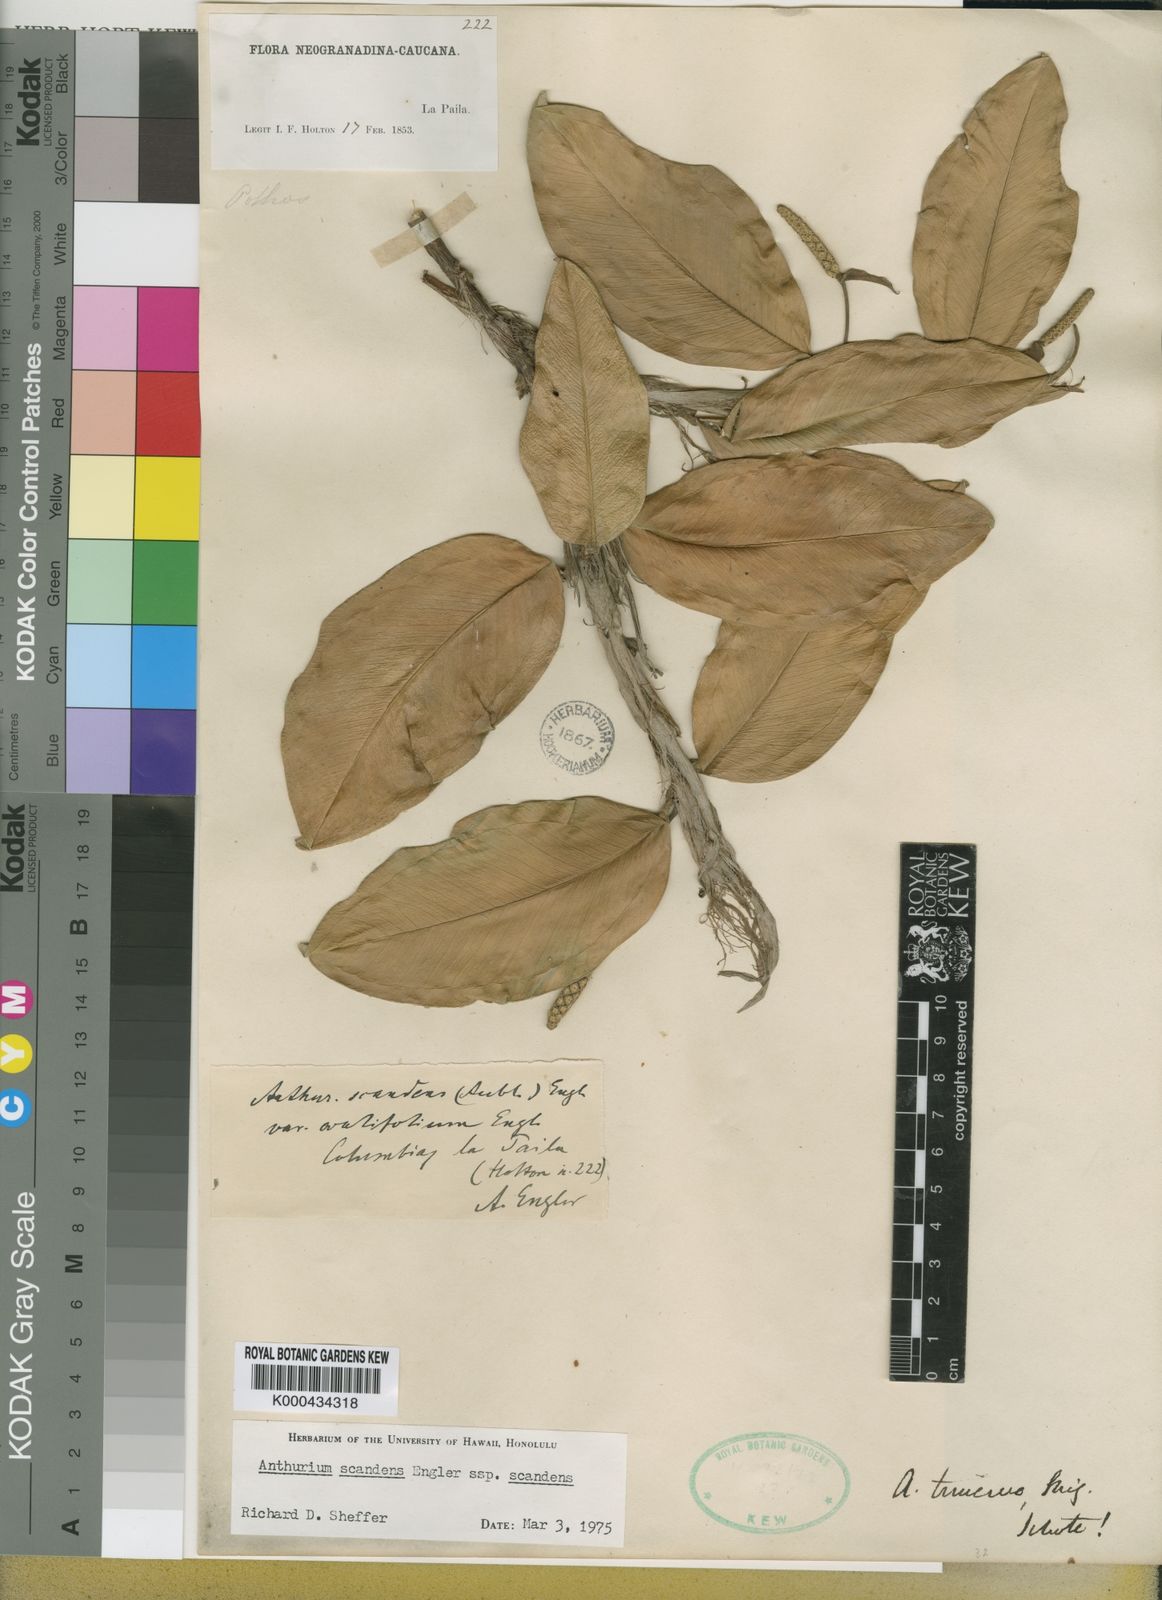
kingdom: Plantae
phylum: Tracheophyta
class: Liliopsida
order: Alismatales
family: Araceae
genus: Anthurium
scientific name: Anthurium scandens
